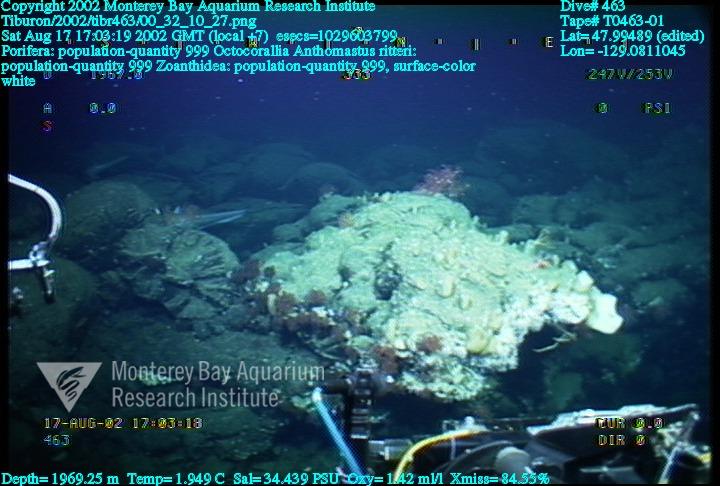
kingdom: Animalia
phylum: Porifera
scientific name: Porifera
